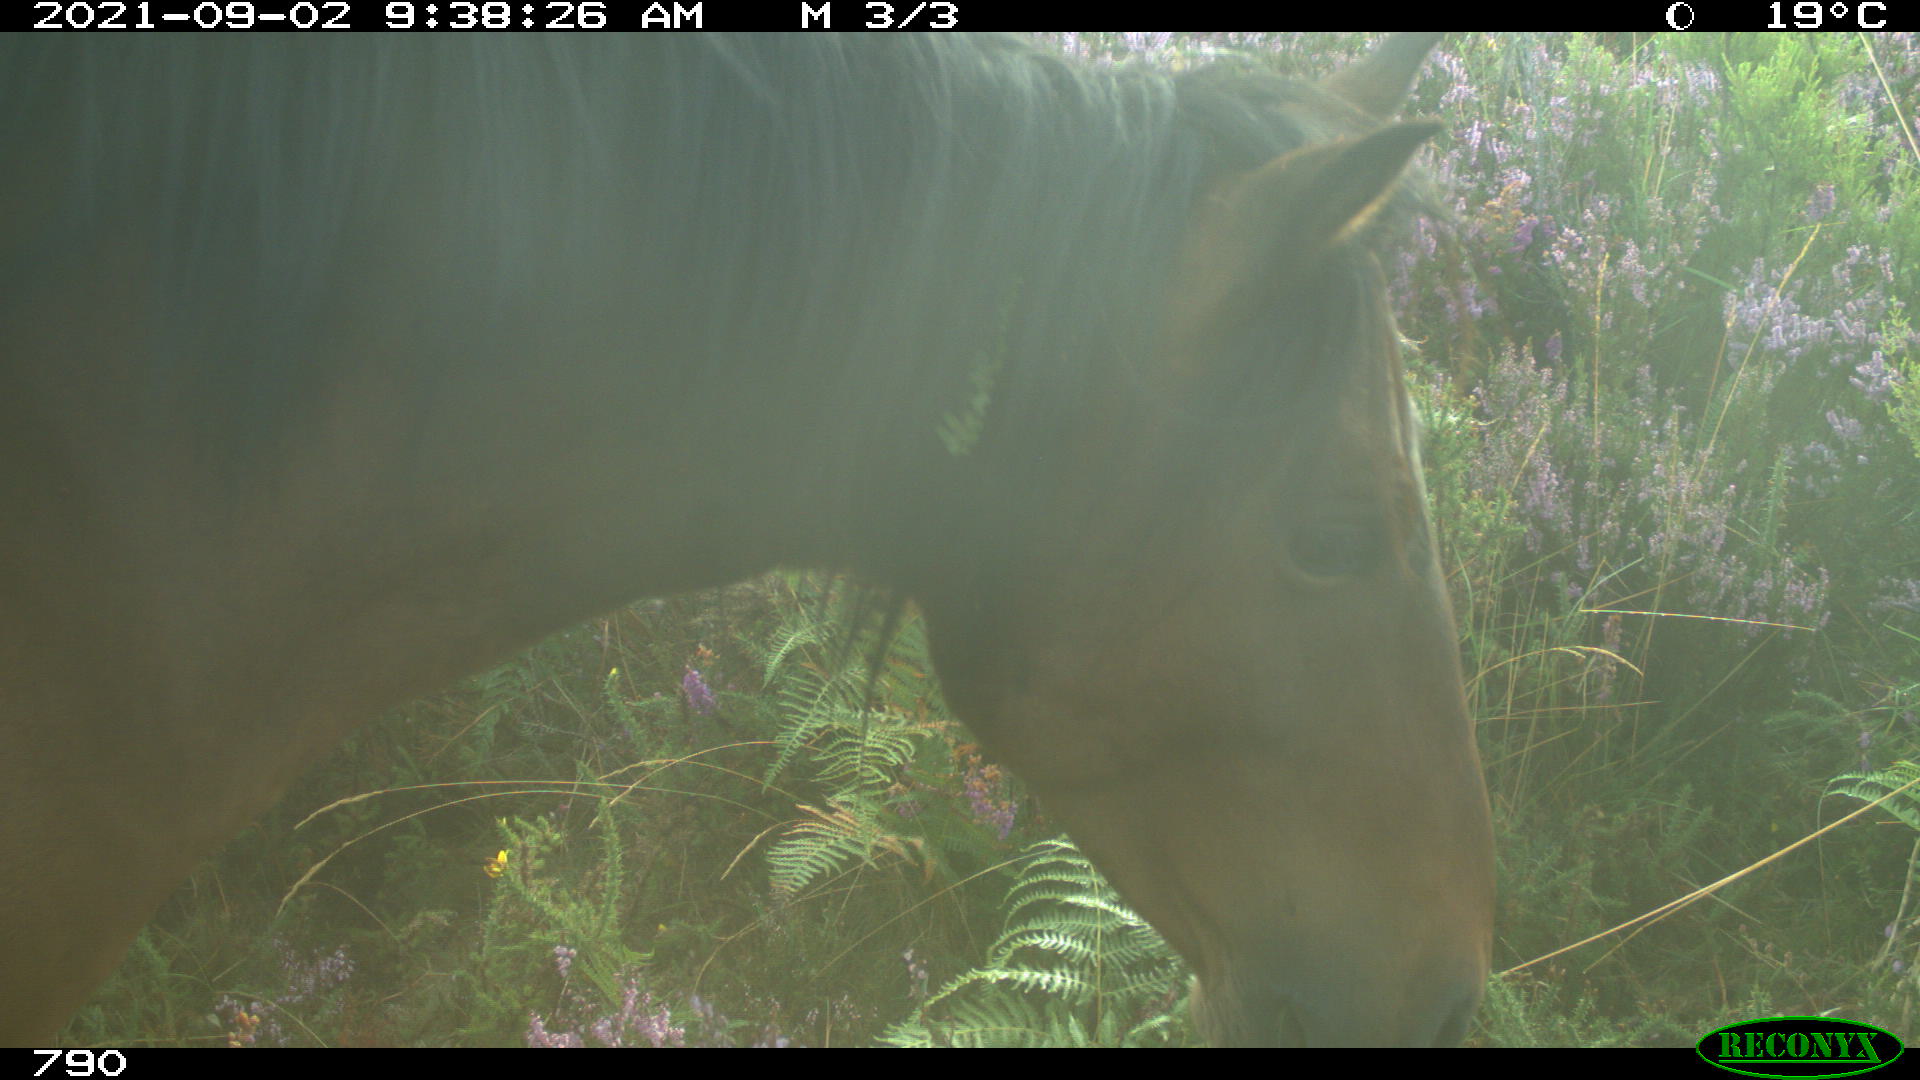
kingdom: Animalia
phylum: Chordata
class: Mammalia
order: Perissodactyla
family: Equidae
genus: Equus
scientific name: Equus caballus
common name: Horse
